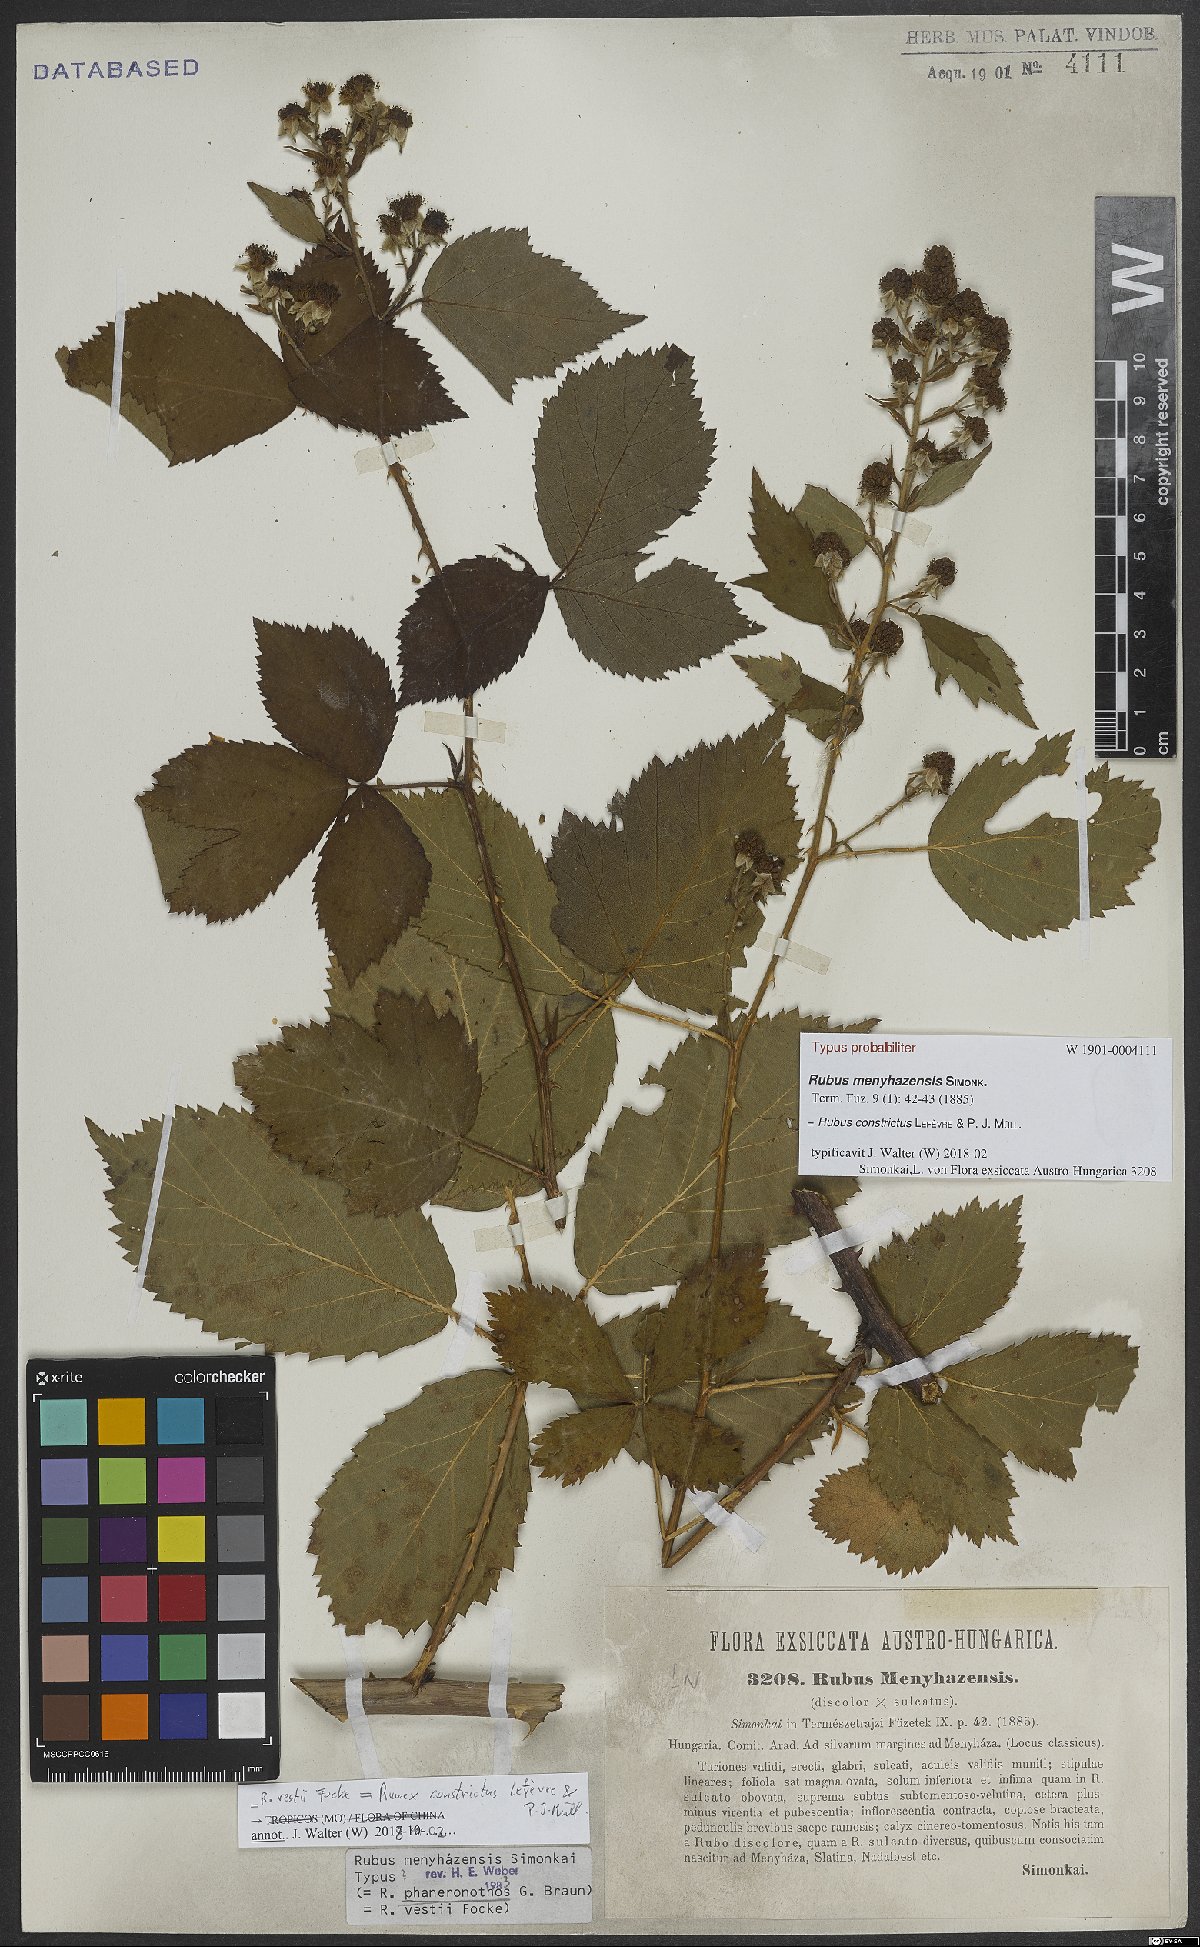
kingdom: Plantae
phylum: Tracheophyta
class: Magnoliopsida
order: Rosales
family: Rosaceae
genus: Rubus
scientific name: Rubus constrictus
